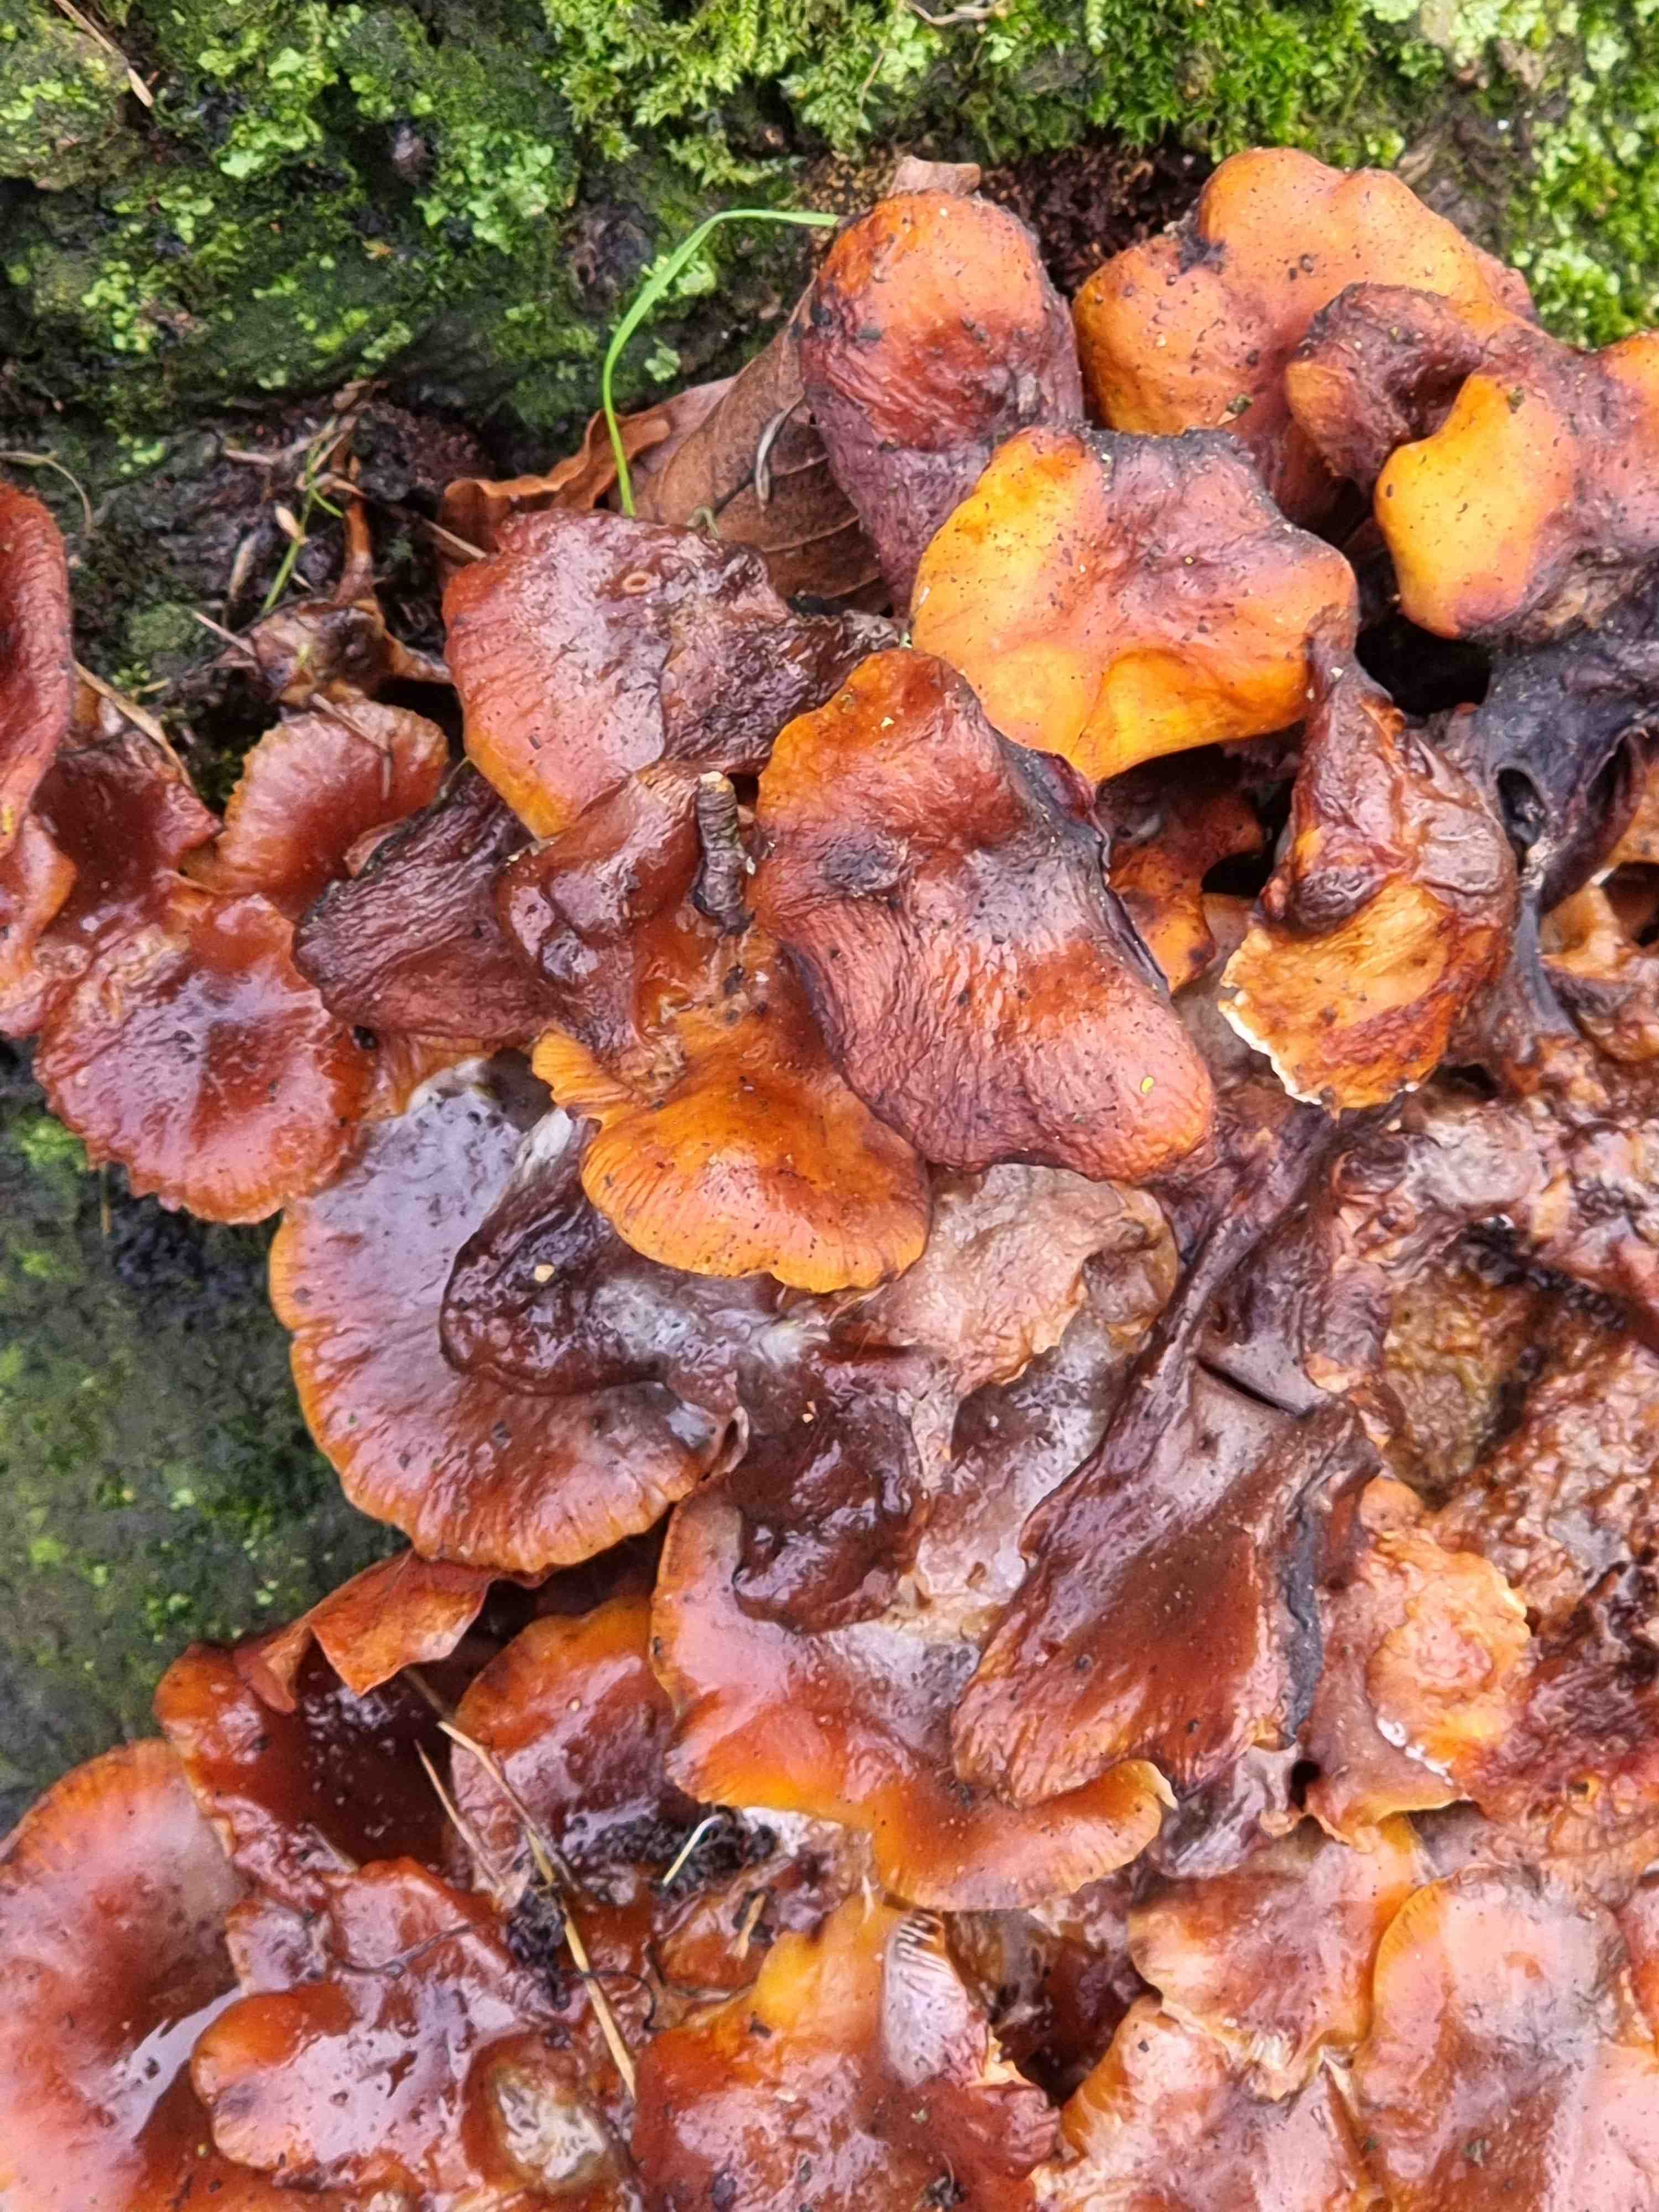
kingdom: Fungi
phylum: Basidiomycota
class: Agaricomycetes
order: Agaricales
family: Physalacriaceae
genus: Flammulina
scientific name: Flammulina velutipes
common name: gul fløjlsfod
